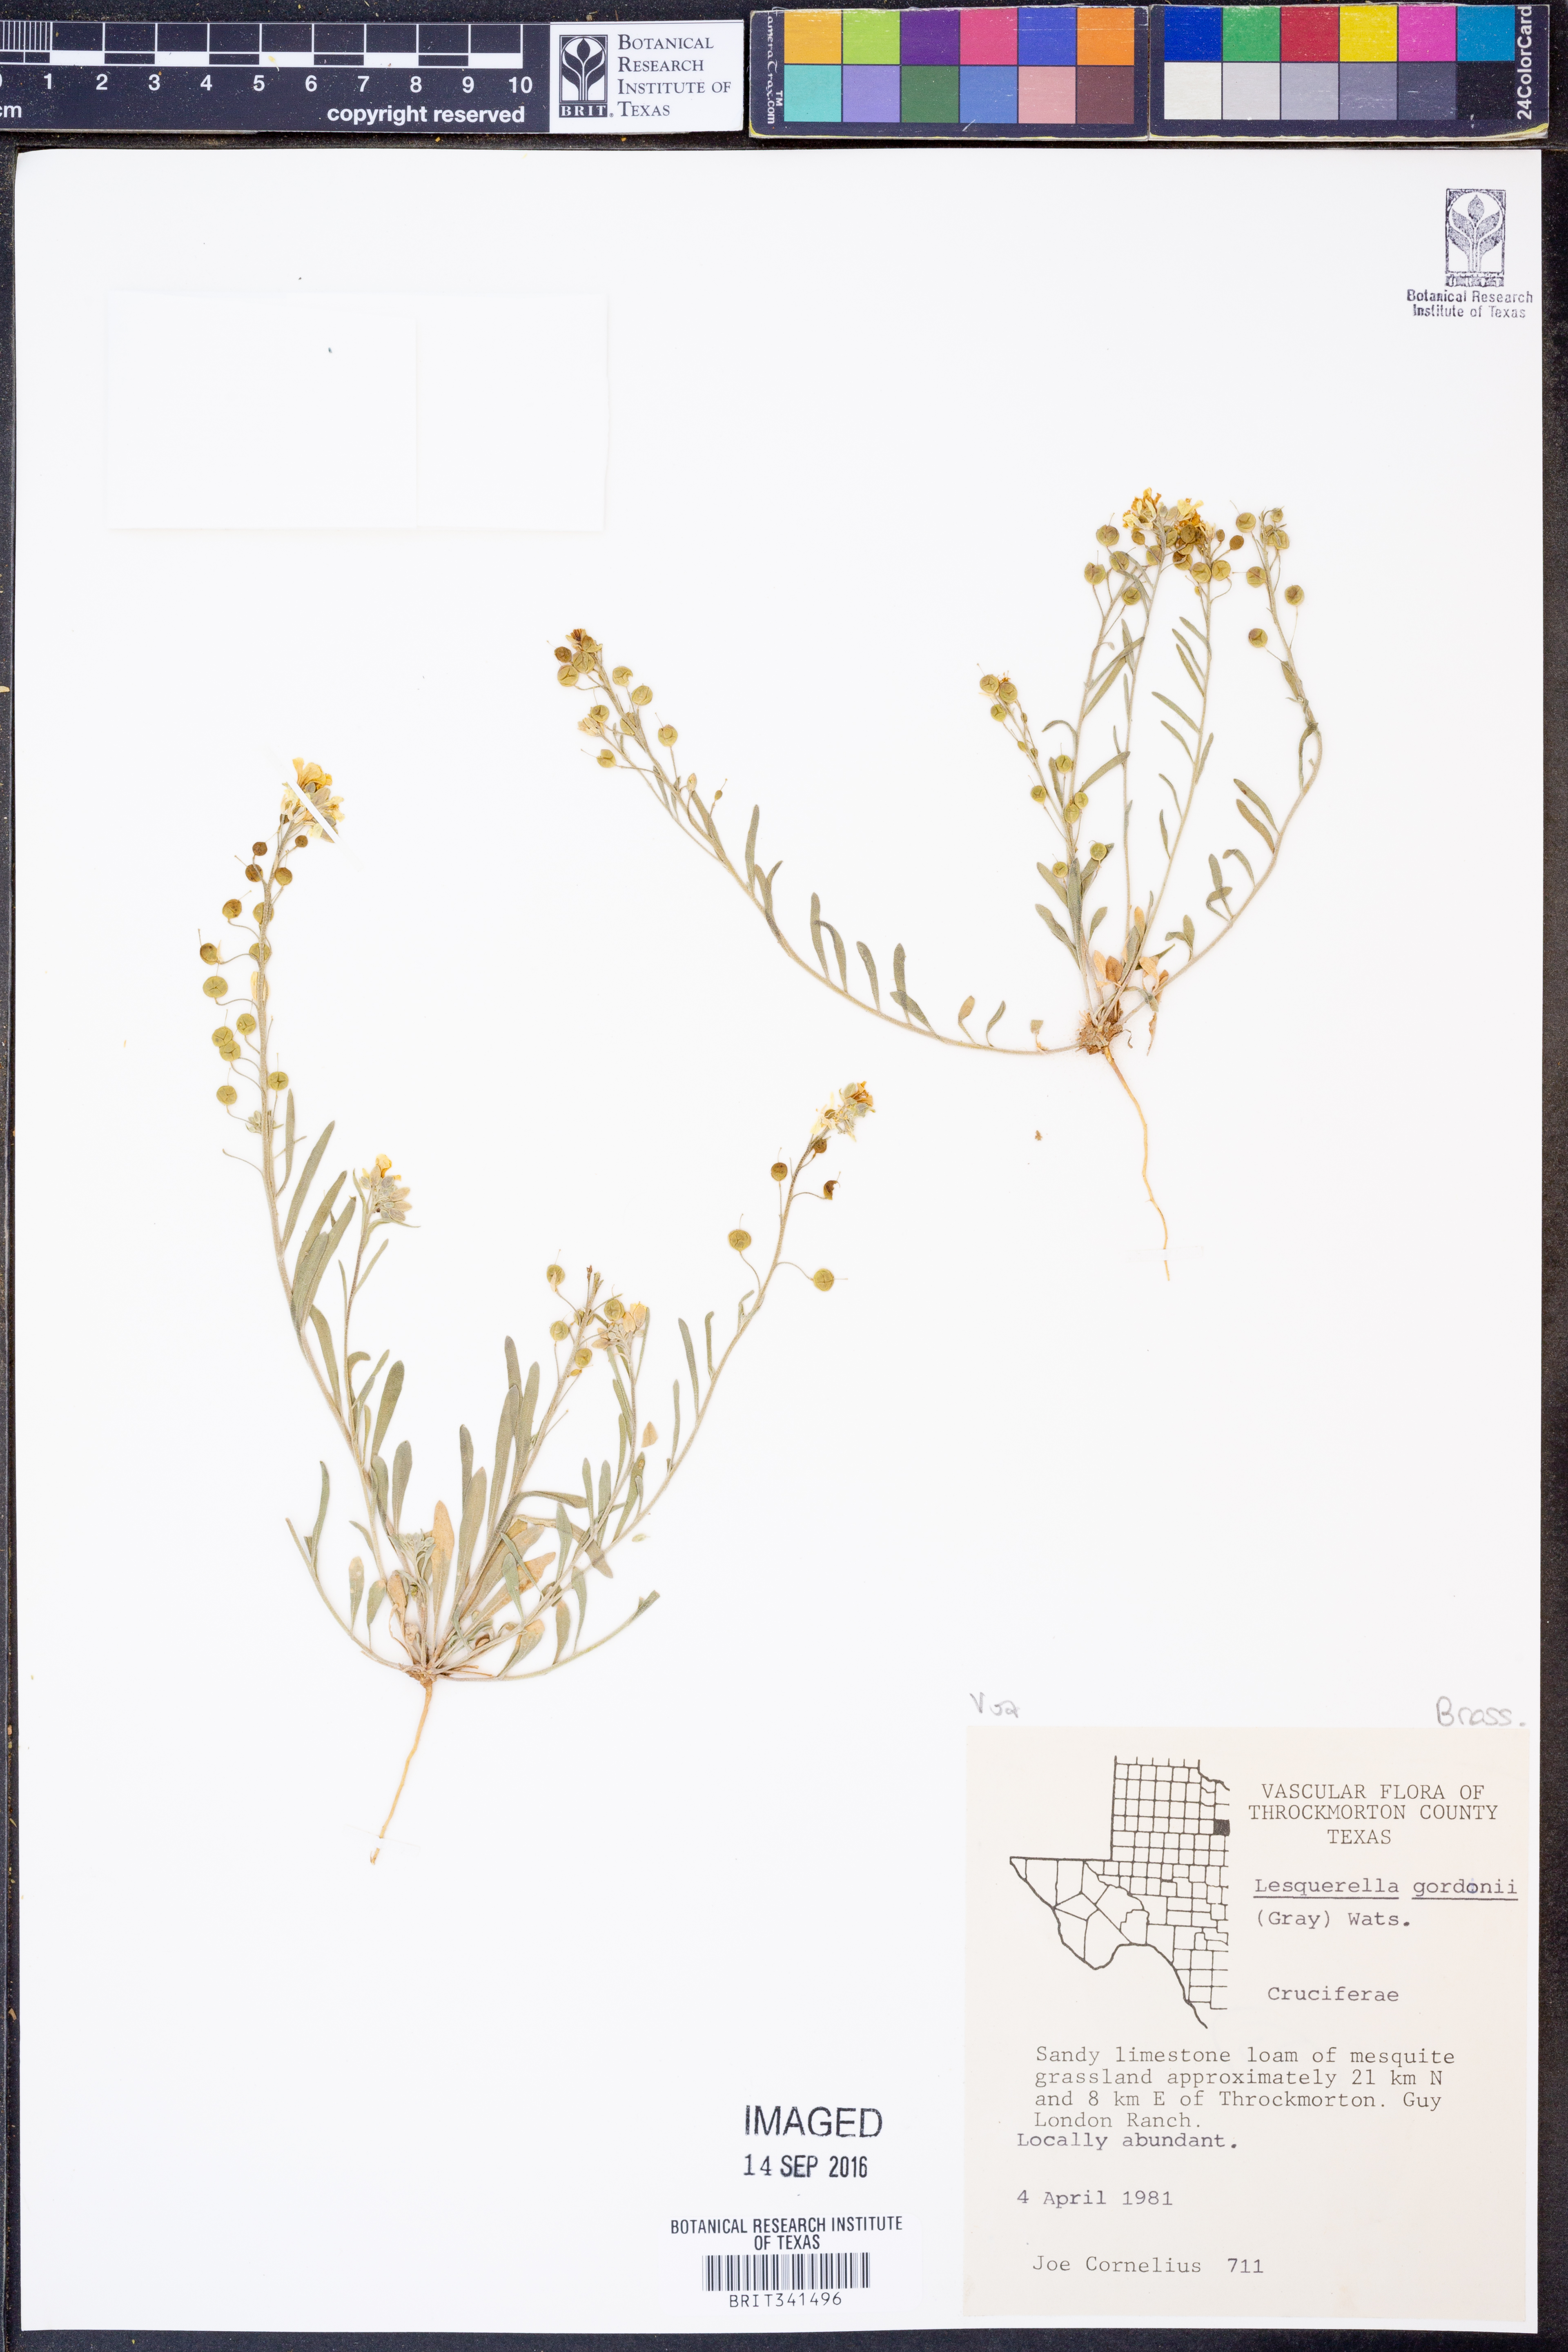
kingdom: Plantae
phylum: Tracheophyta
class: Magnoliopsida
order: Brassicales
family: Brassicaceae
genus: Physaria
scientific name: Physaria gordonii
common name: Gordon's bladderpod
